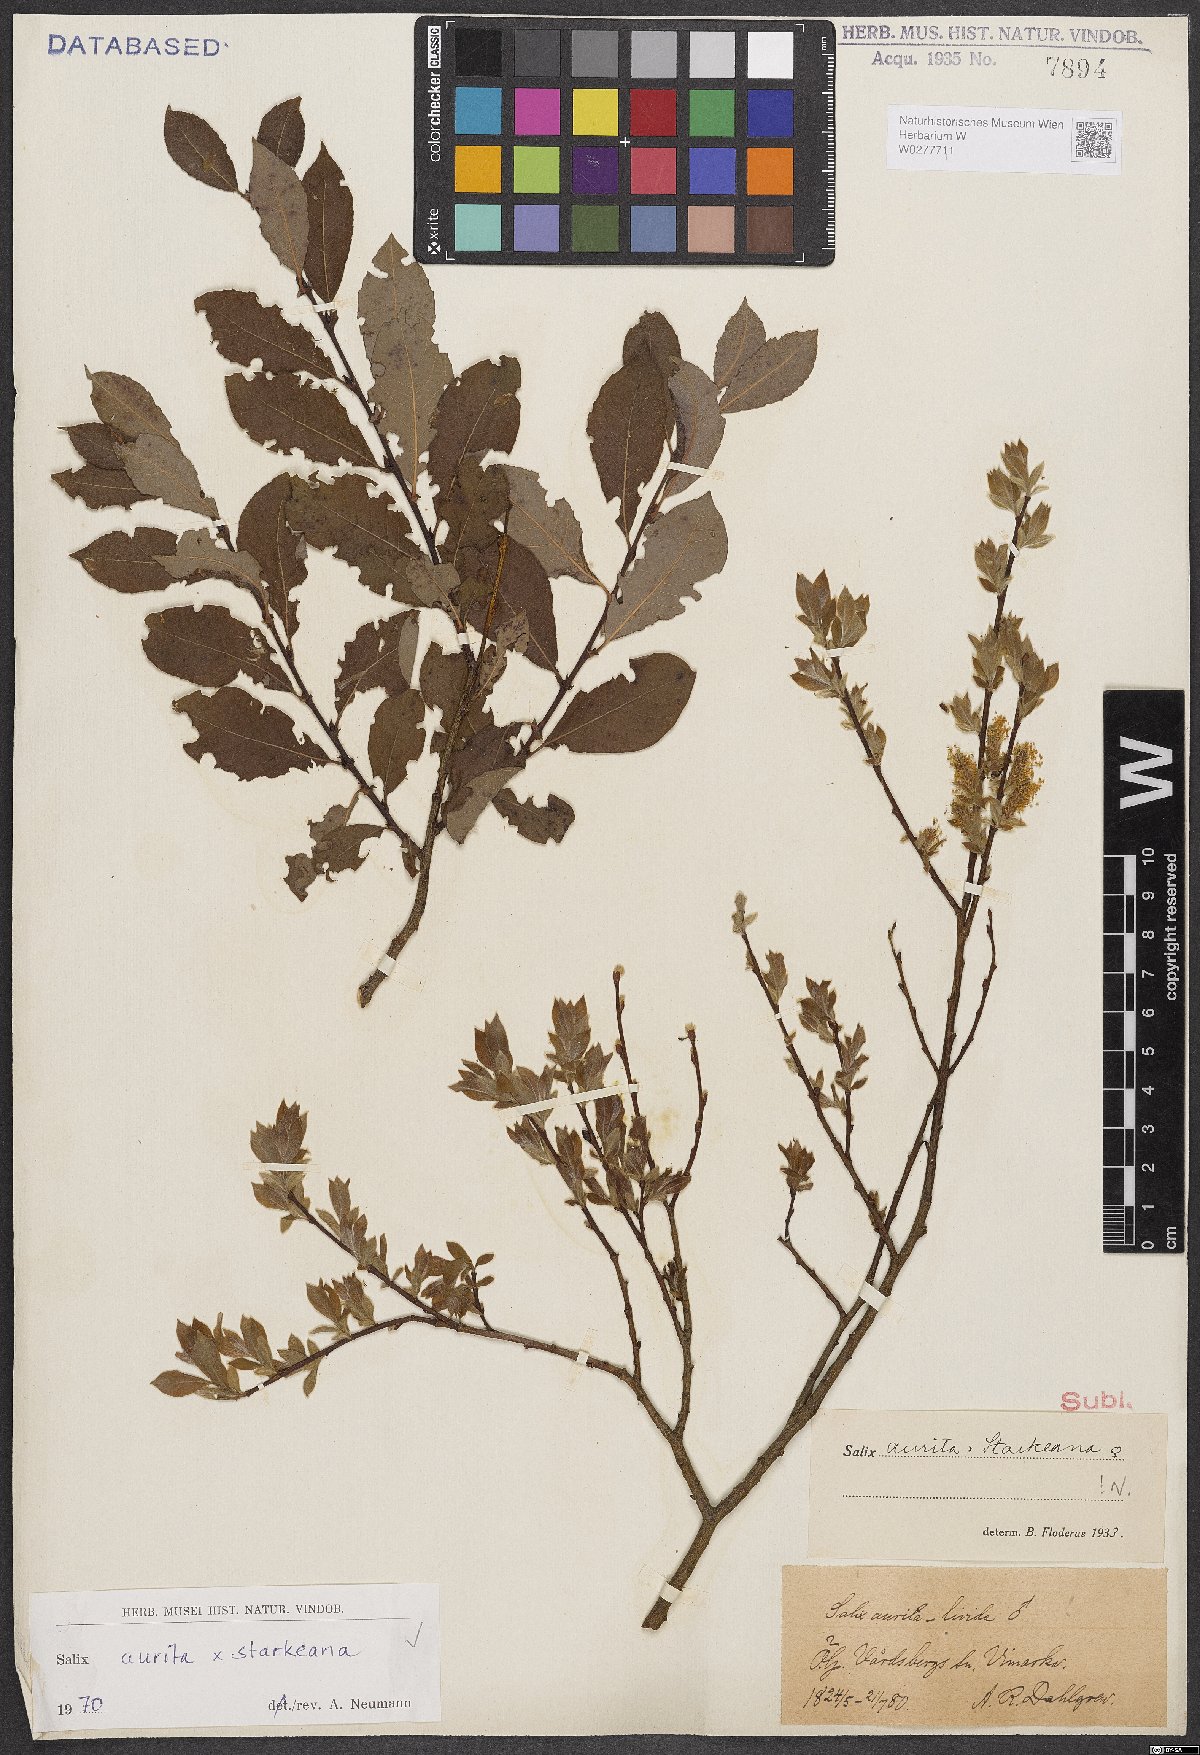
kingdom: Plantae
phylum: Tracheophyta
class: Magnoliopsida
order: Malpighiales
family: Salicaceae
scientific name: Salicaceae
